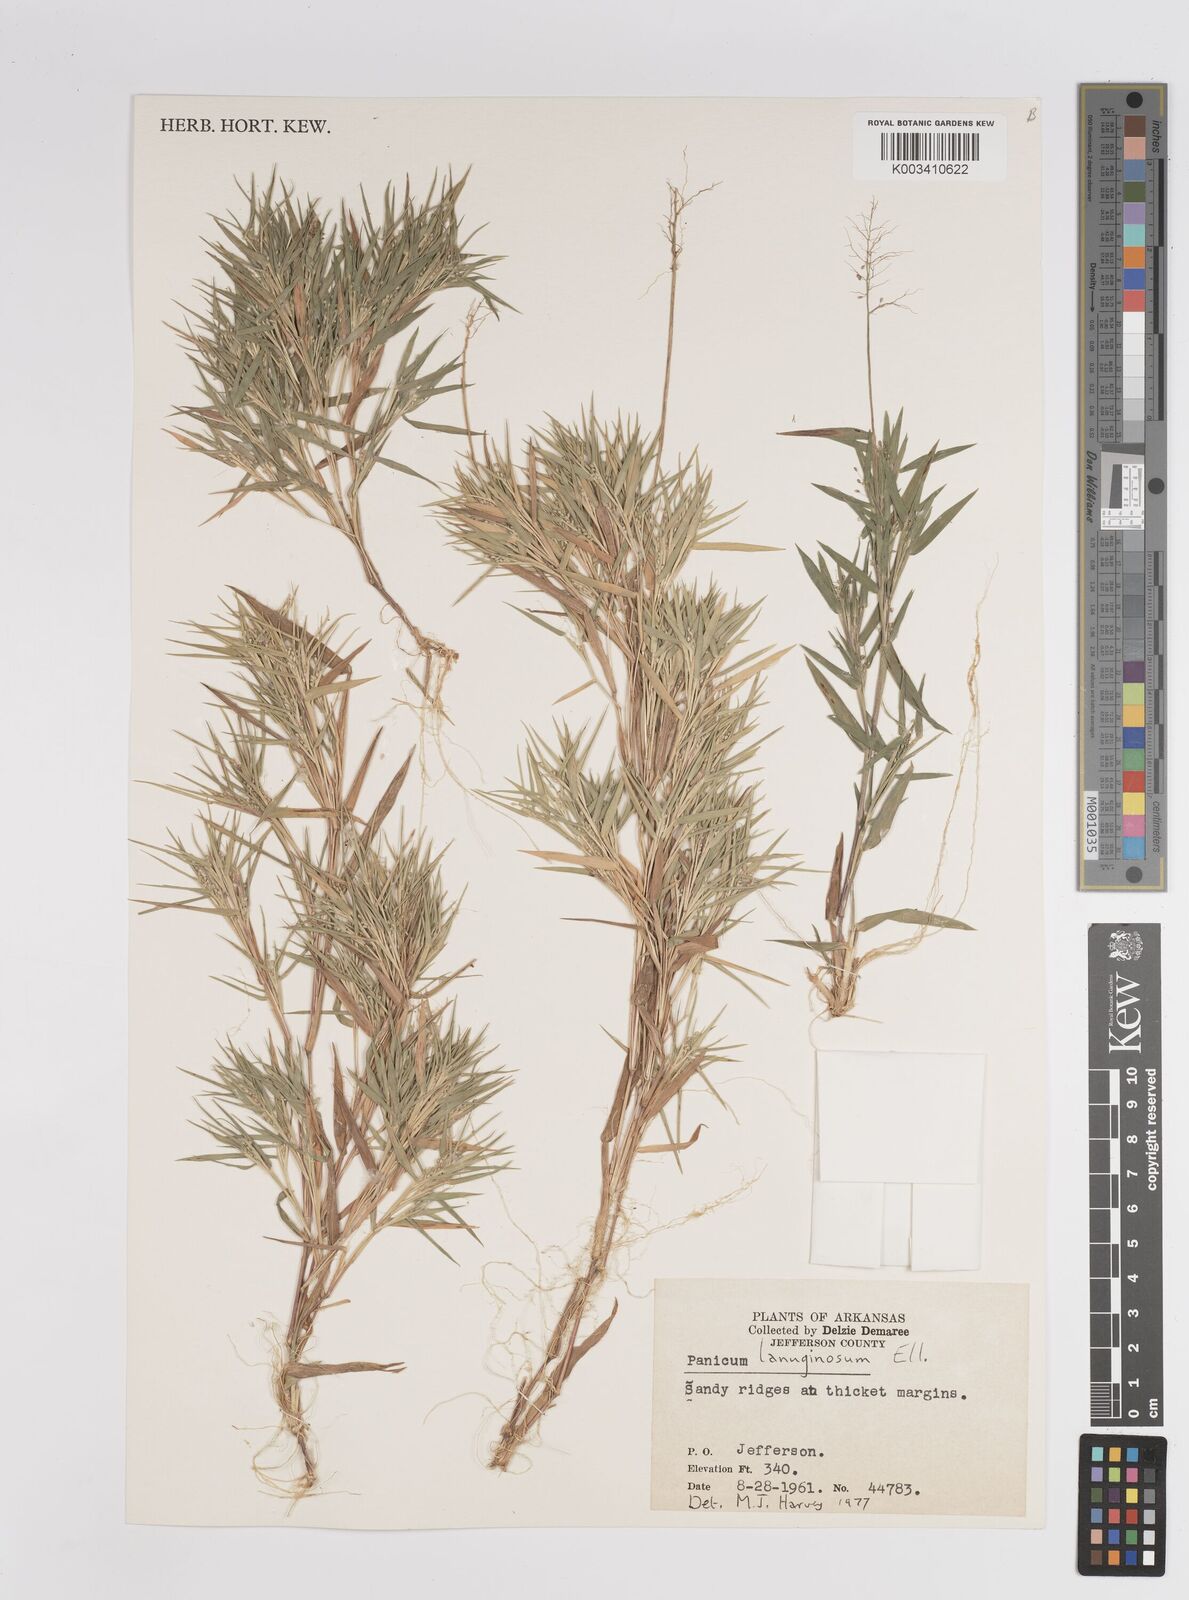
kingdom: Plantae
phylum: Tracheophyta
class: Liliopsida
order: Poales
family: Poaceae
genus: Dichanthelium
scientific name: Dichanthelium lanuginosum
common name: Woolly panicgrass
